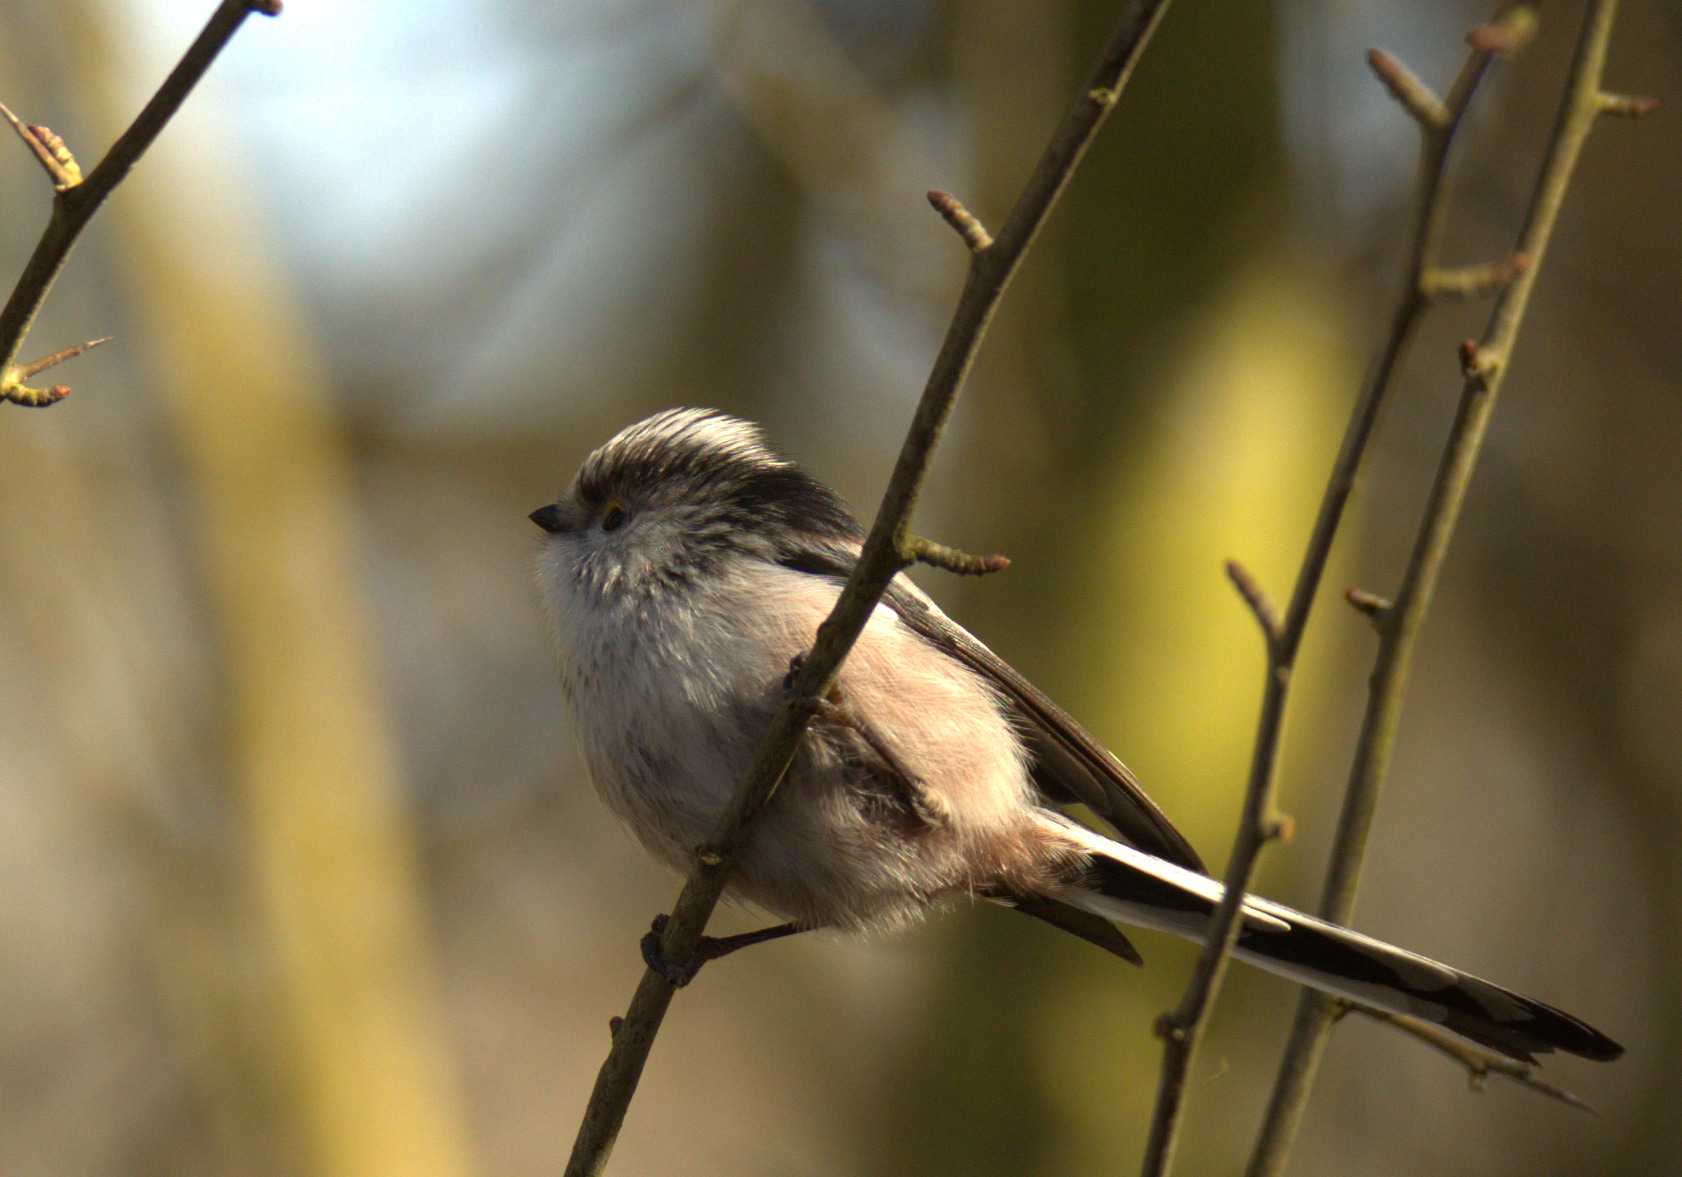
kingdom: Animalia
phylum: Chordata
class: Aves
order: Passeriformes
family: Aegithalidae
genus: Aegithalos
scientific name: Aegithalos caudatus
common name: Halemejse
